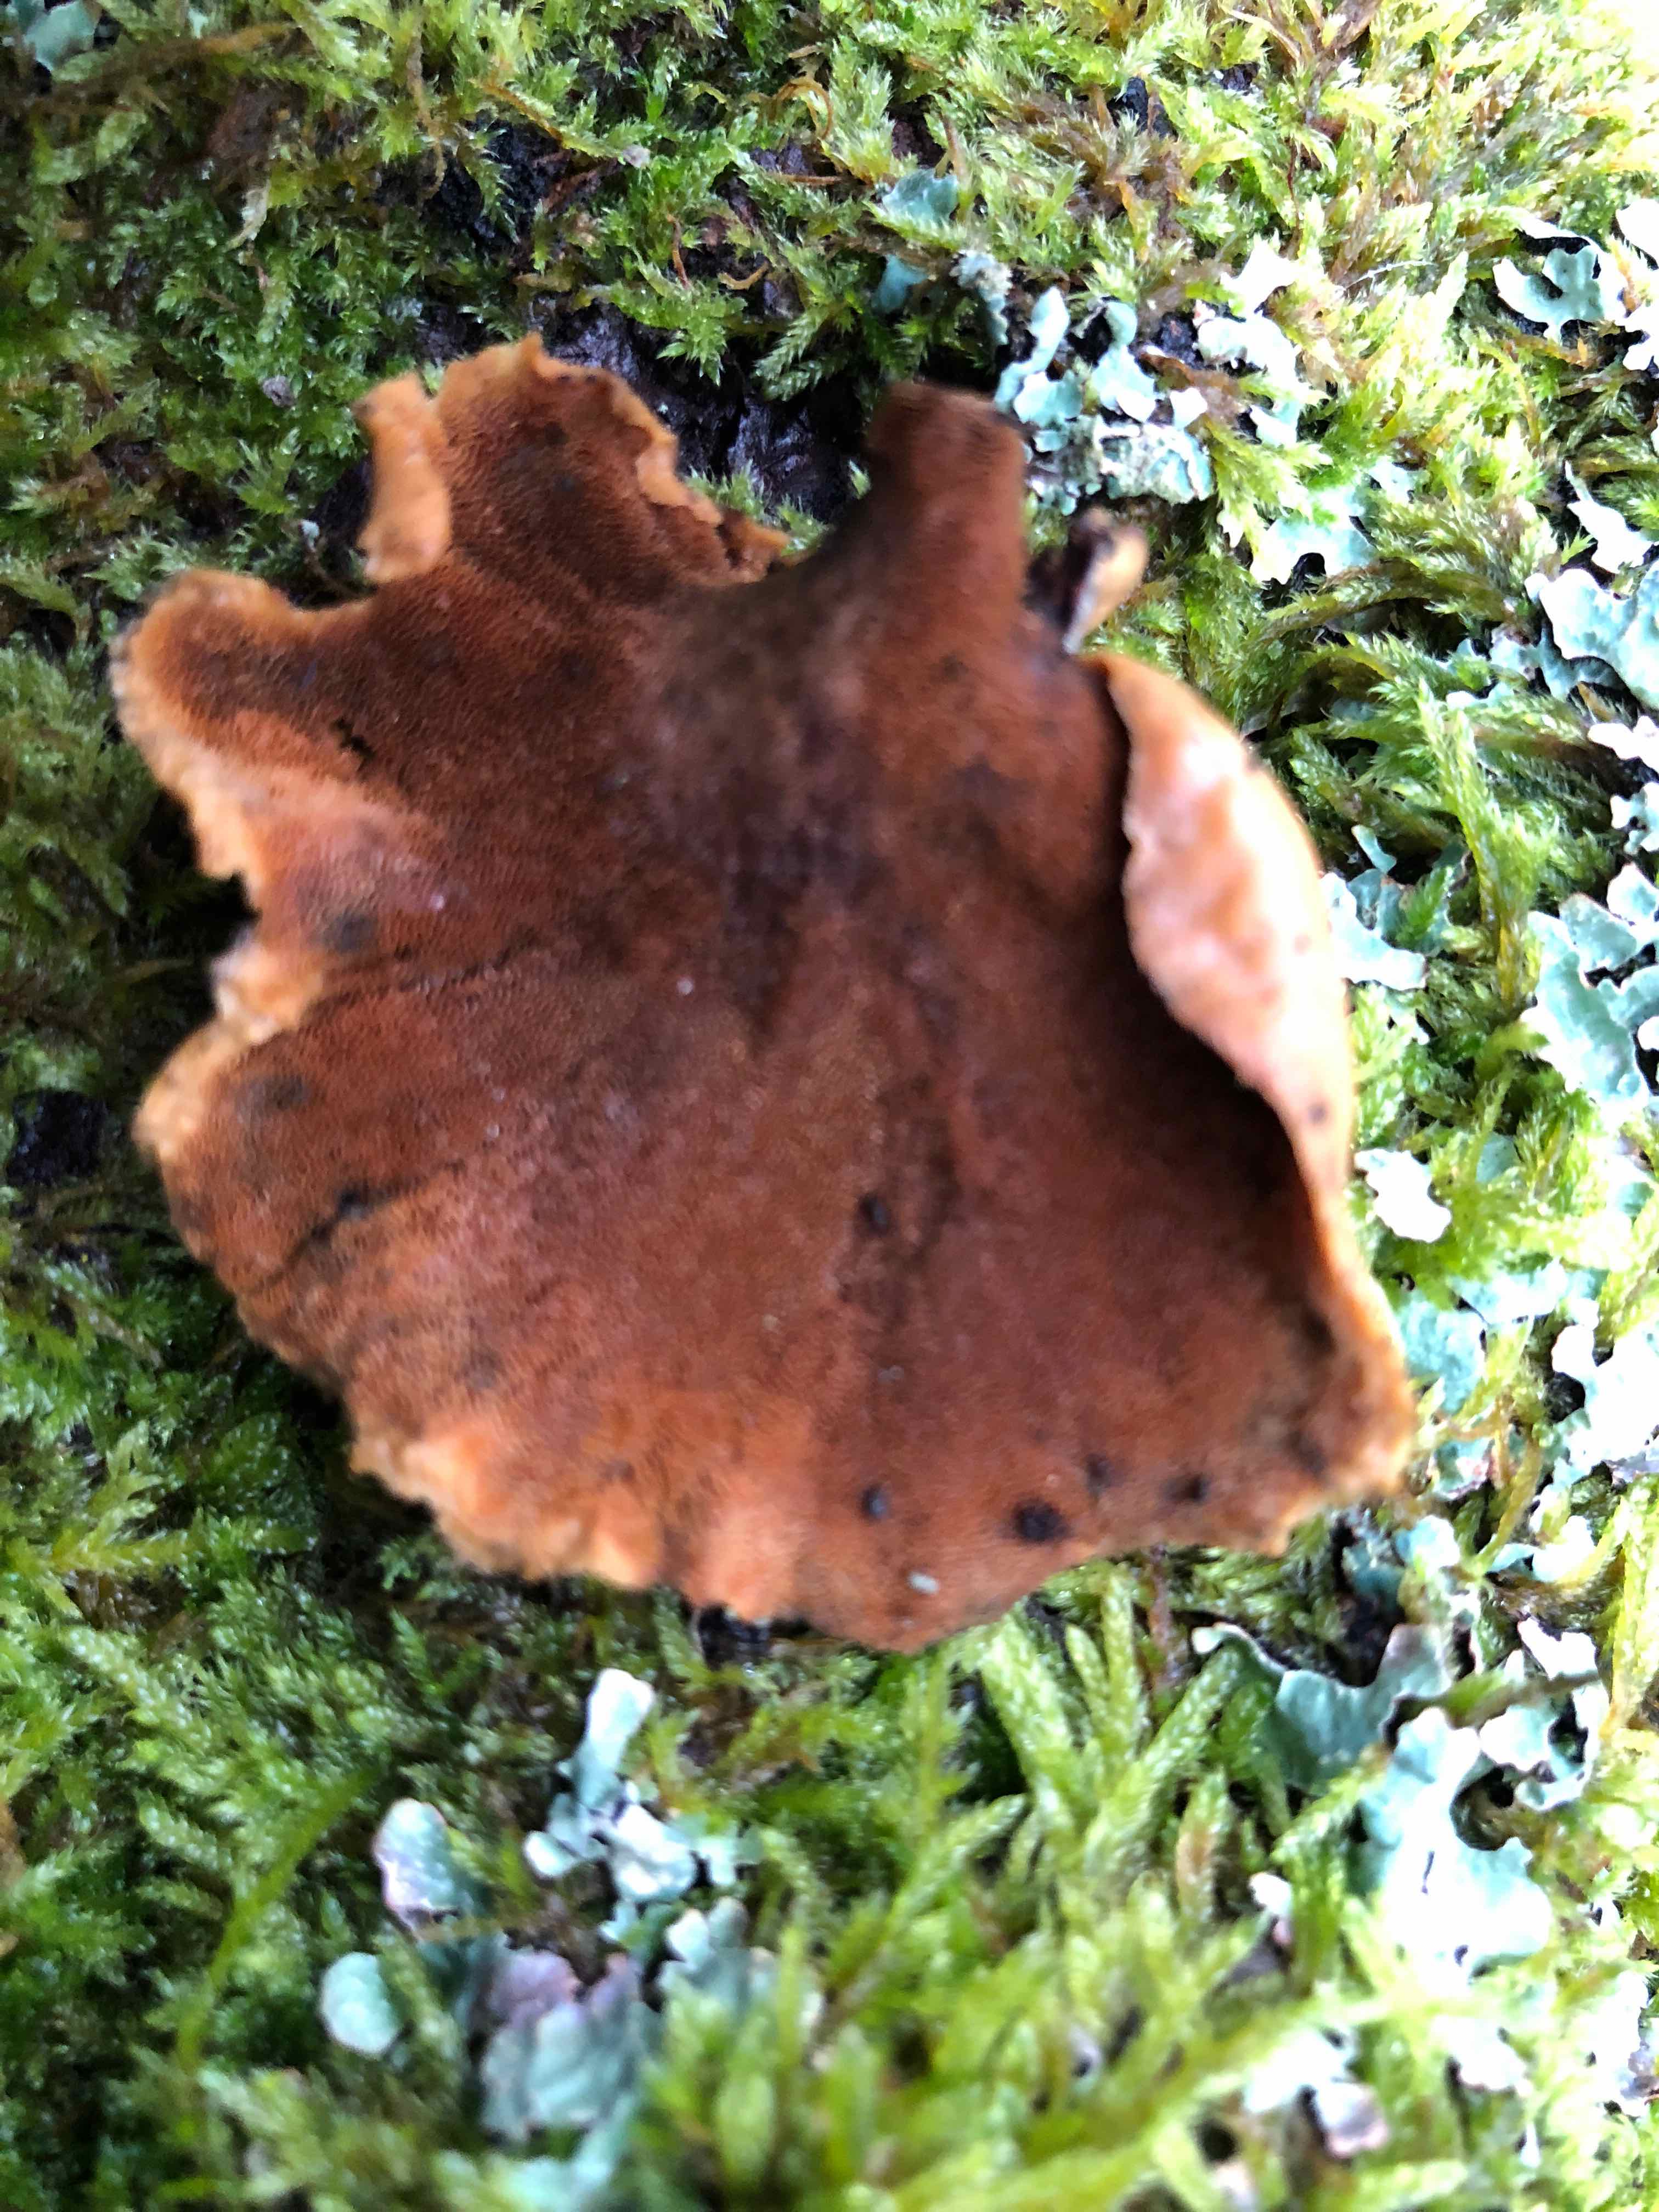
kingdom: Fungi
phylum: Basidiomycota
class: Agaricomycetes
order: Polyporales
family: Polyporaceae
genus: Cerioporus
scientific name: Cerioporus varius
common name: foranderlig stilkporesvamp
